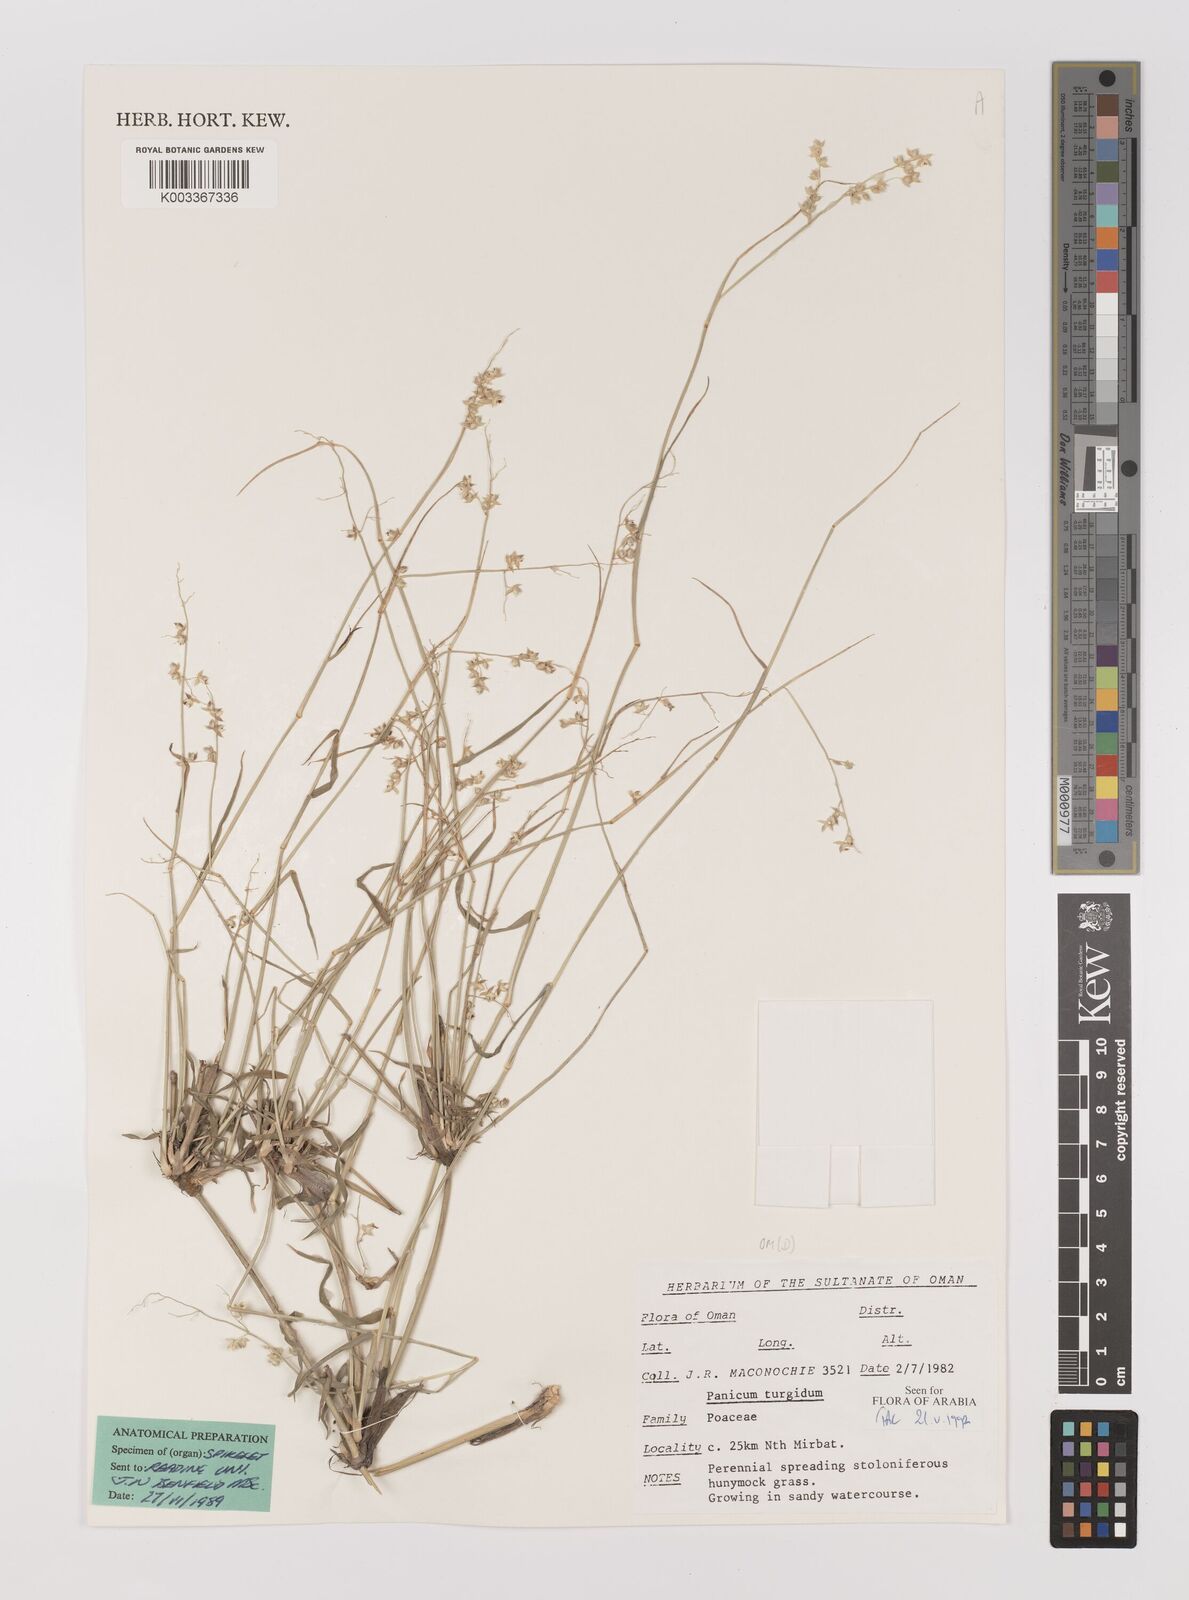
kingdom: Plantae
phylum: Tracheophyta
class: Liliopsida
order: Poales
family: Poaceae
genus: Panicum
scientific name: Panicum turgidum
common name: Desert grass
